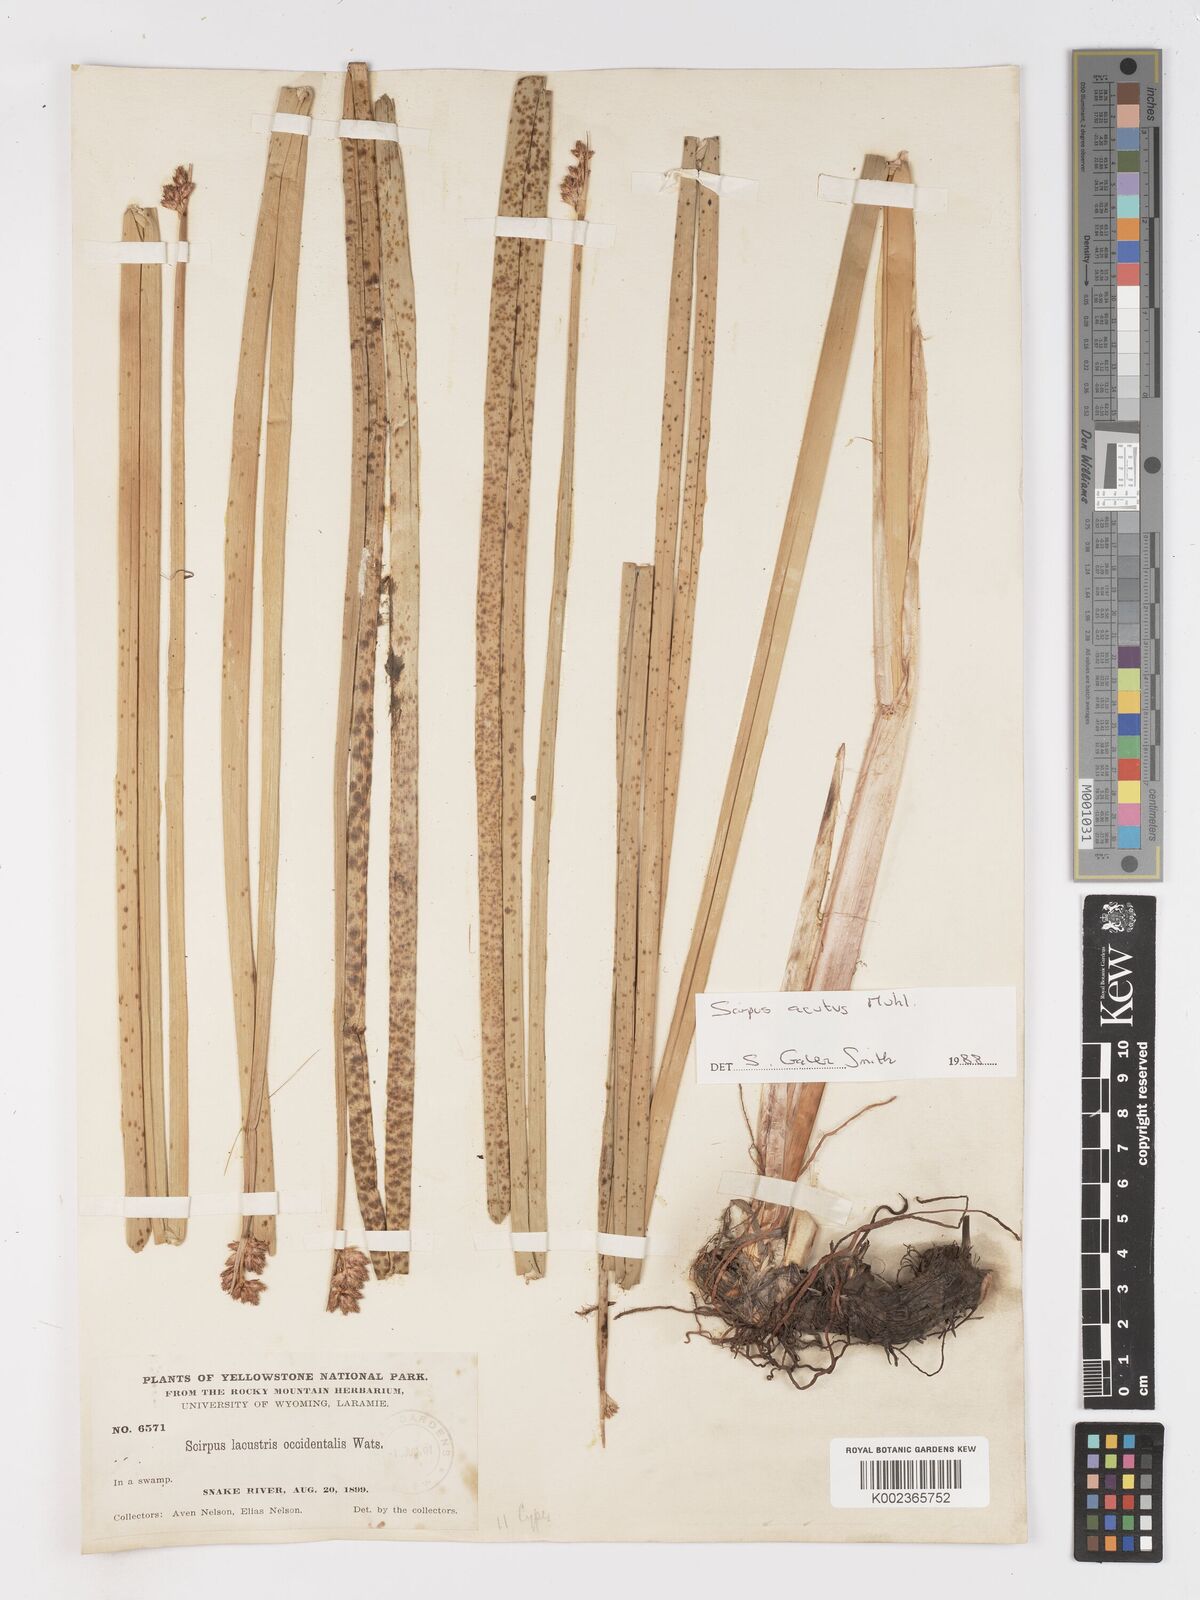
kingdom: Plantae
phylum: Tracheophyta
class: Liliopsida
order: Poales
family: Cyperaceae
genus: Schoenoplectus
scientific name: Schoenoplectus
